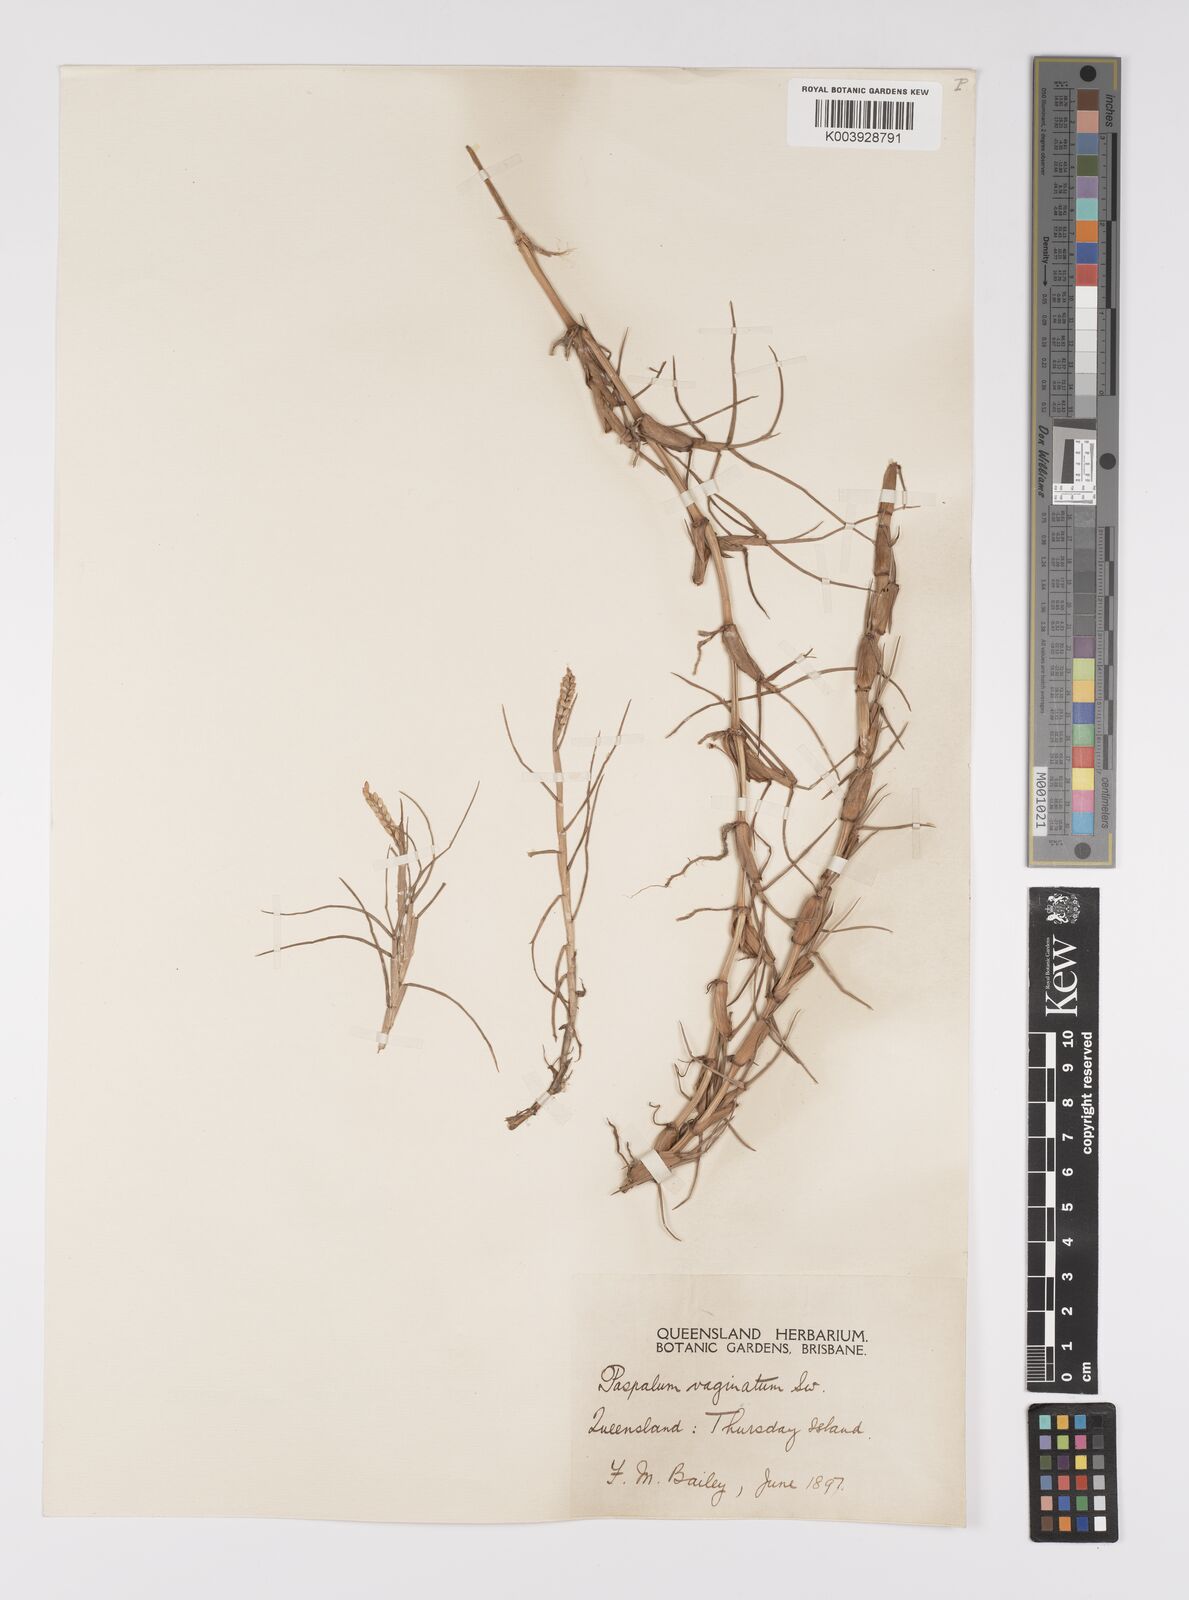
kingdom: Plantae
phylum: Tracheophyta
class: Liliopsida
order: Poales
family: Poaceae
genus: Paspalum
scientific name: Paspalum vaginatum
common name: Seashore paspalum
